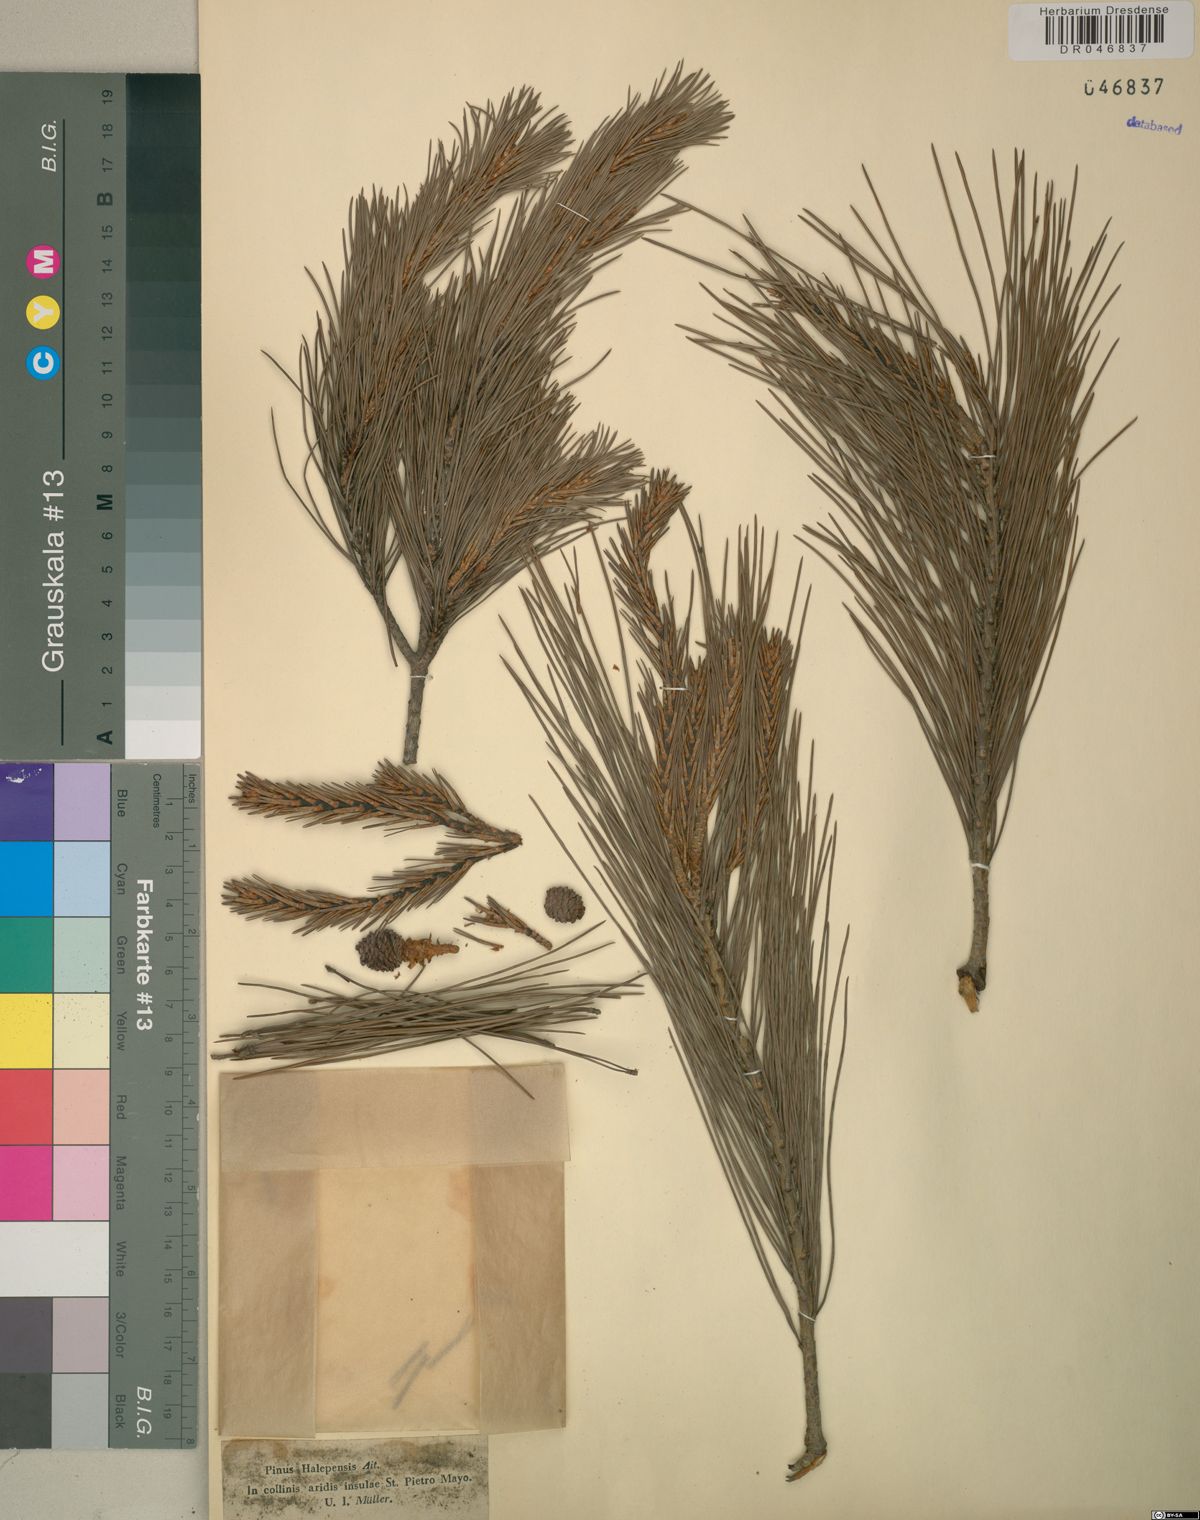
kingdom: Plantae
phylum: Tracheophyta
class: Pinopsida
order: Pinales
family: Pinaceae
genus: Pinus
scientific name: Pinus halepensis
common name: Aleppo pine
